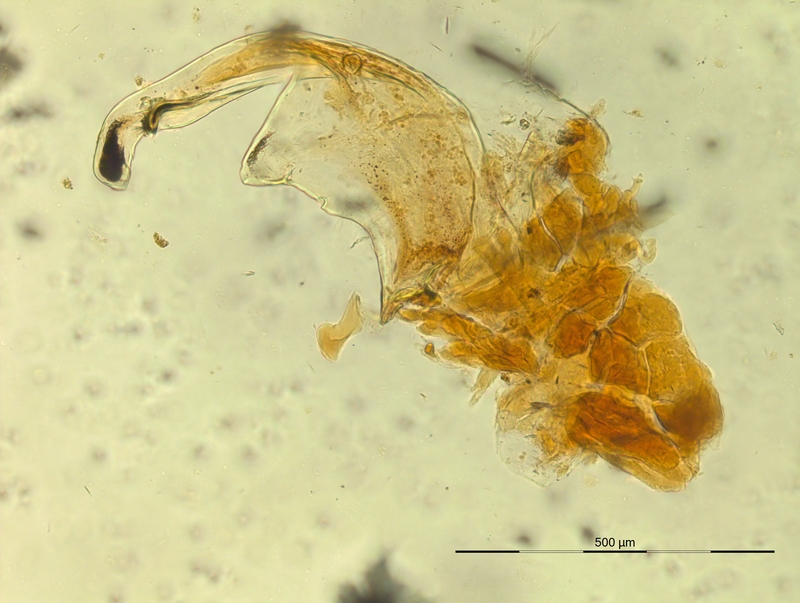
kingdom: Animalia
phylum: Arthropoda
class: Diplopoda
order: Chordeumatida
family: Craspedosomatidae
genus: Pterygophorosoma
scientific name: Pterygophorosoma alticolum
